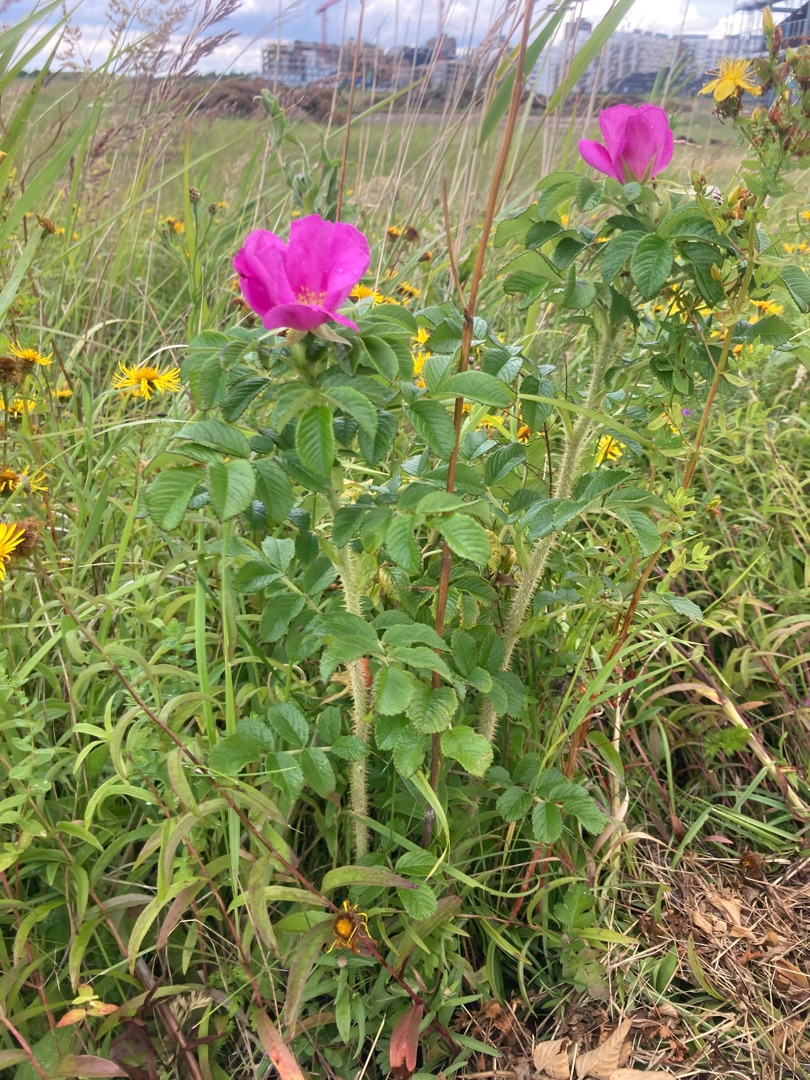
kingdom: Plantae
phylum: Tracheophyta
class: Magnoliopsida
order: Rosales
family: Rosaceae
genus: Rosa
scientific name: Rosa rugosa
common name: Rynket rose
